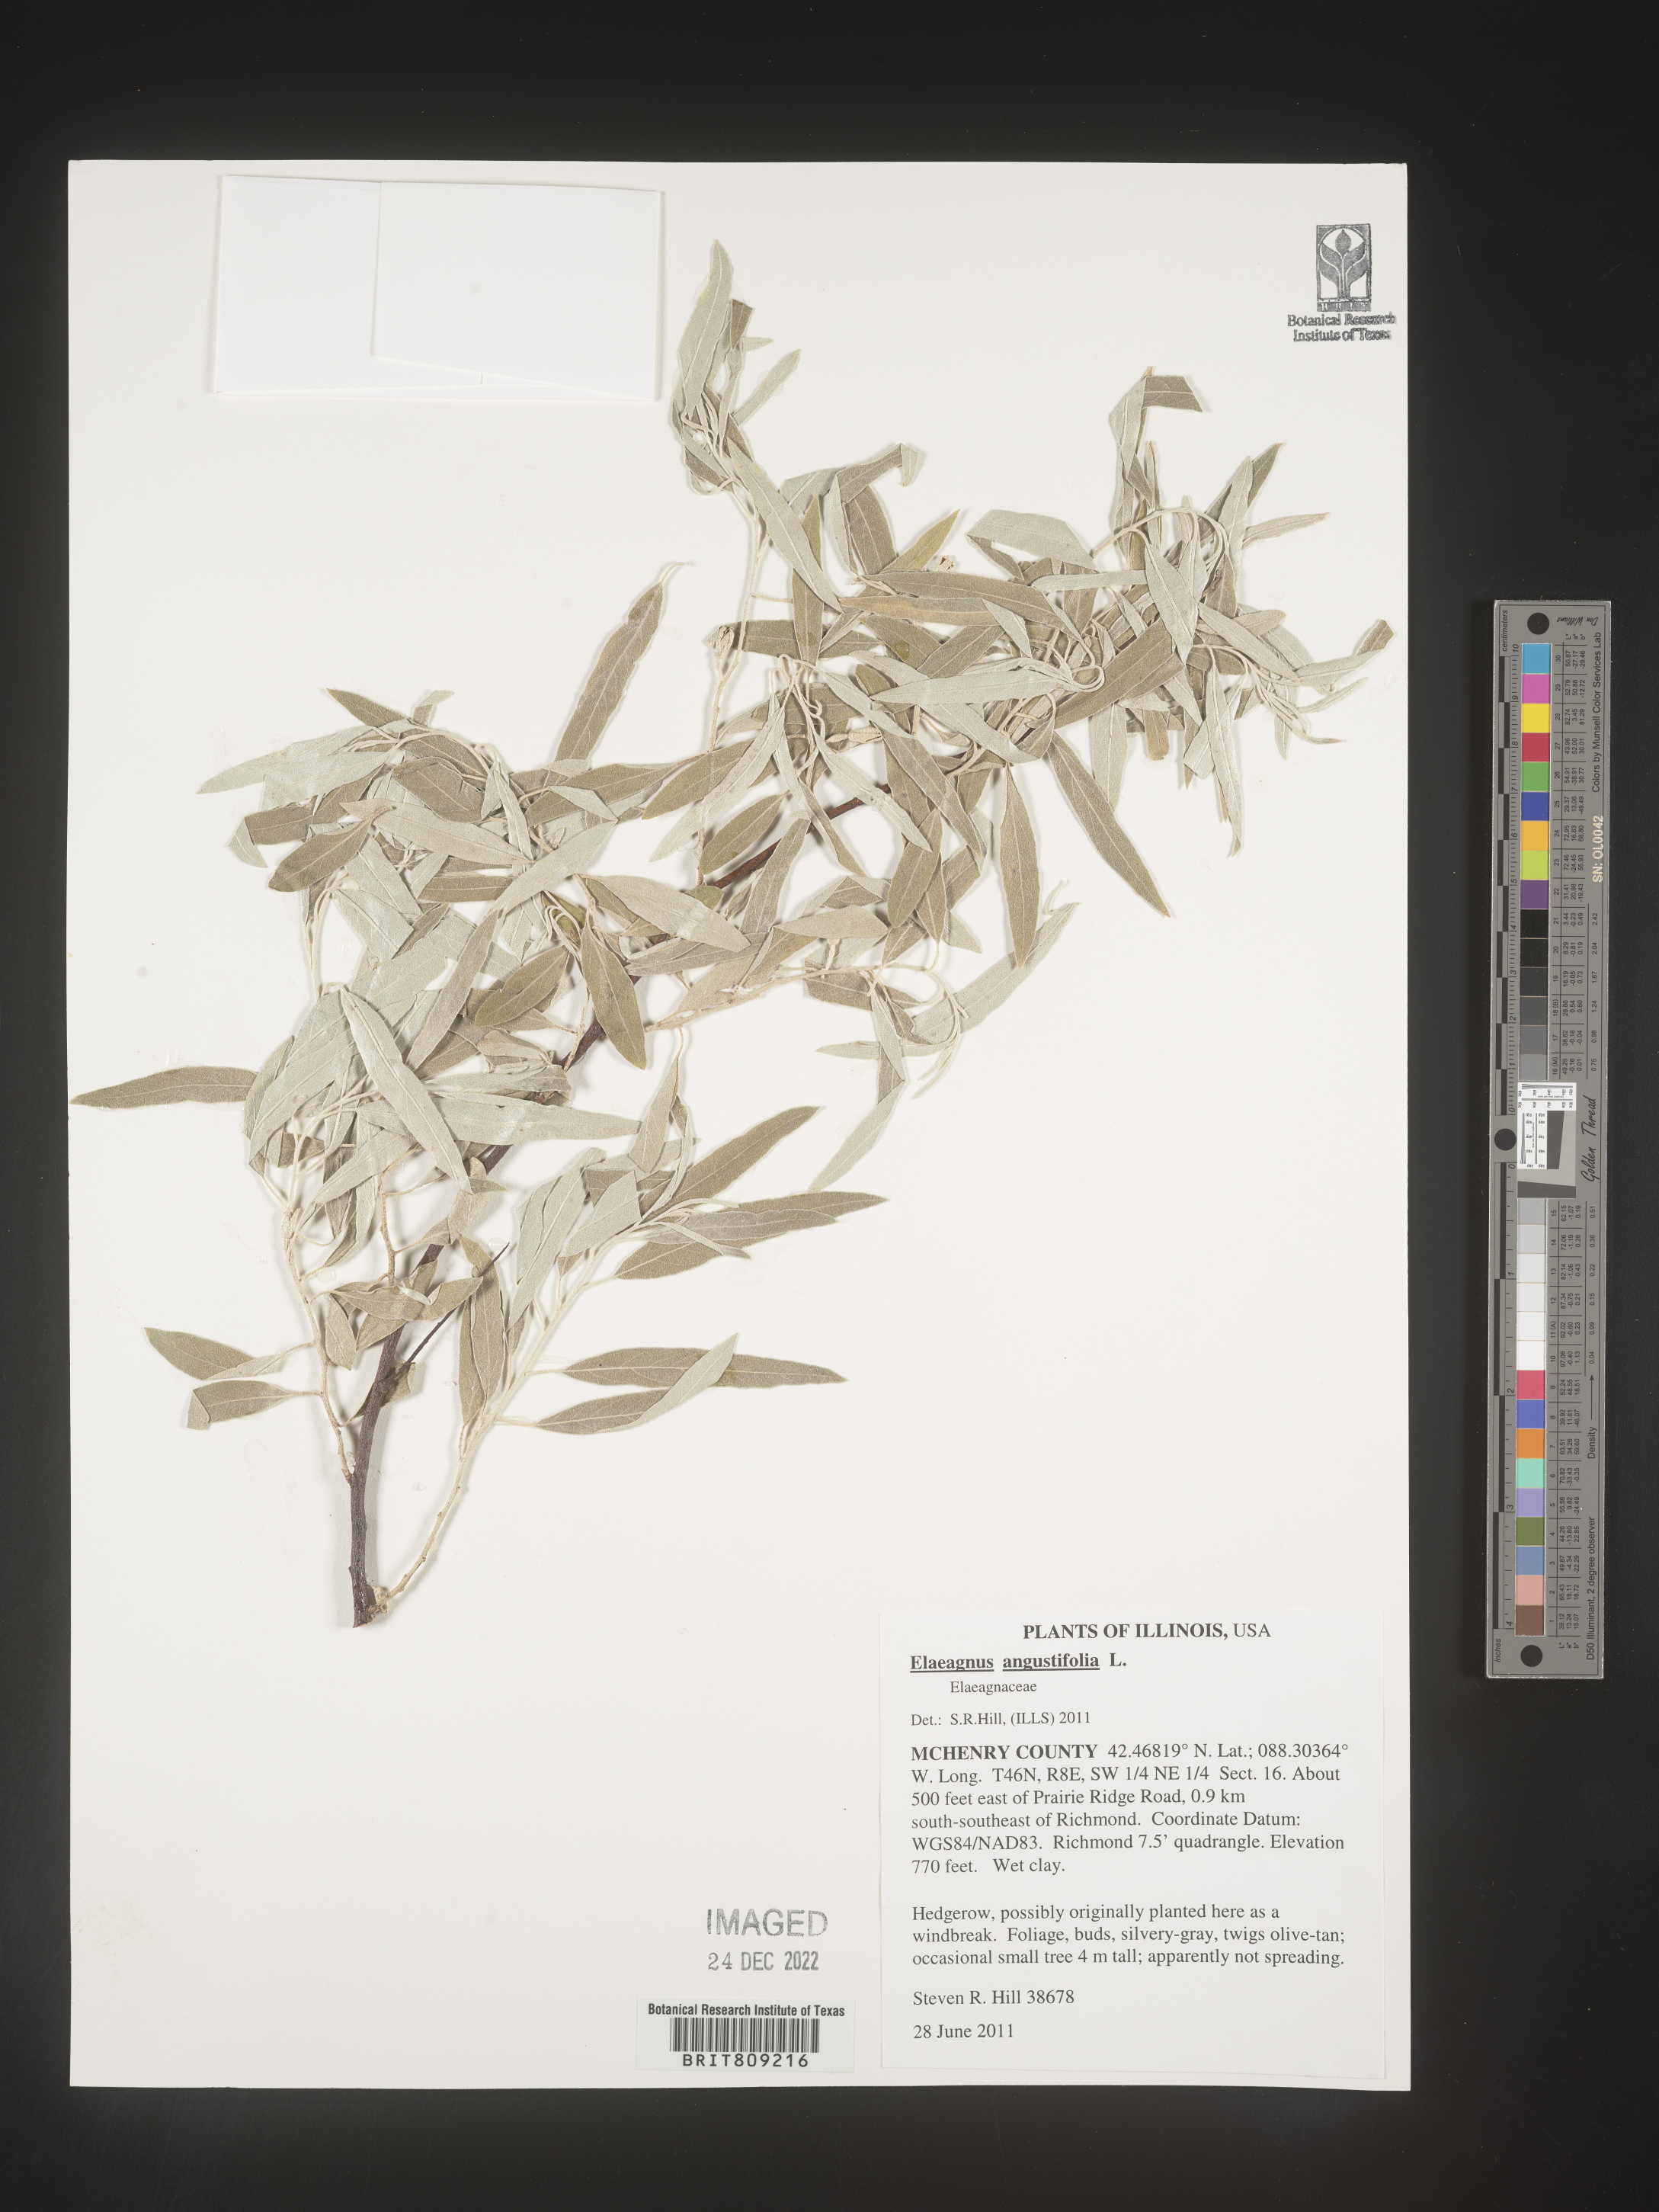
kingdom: Plantae
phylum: Tracheophyta
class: Magnoliopsida
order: Rosales
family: Elaeagnaceae
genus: Elaeagnus
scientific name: Elaeagnus angustifolia
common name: Russian olive
